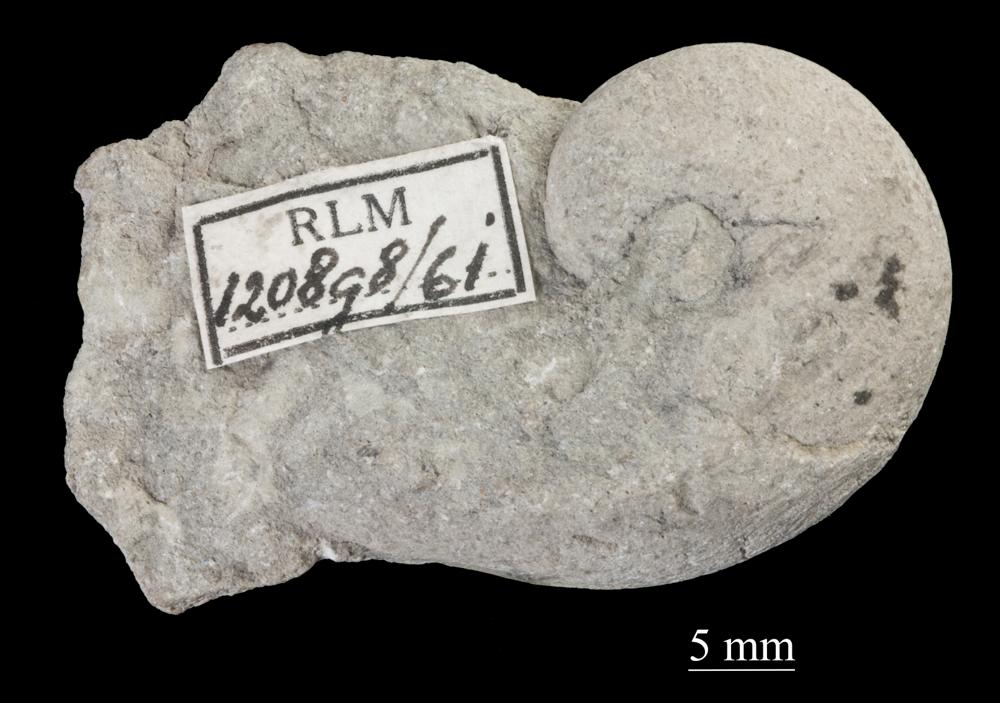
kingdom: Animalia
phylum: Mollusca
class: Gastropoda
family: Sinuitidae
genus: Sinuites
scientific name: Sinuites bilobatus
